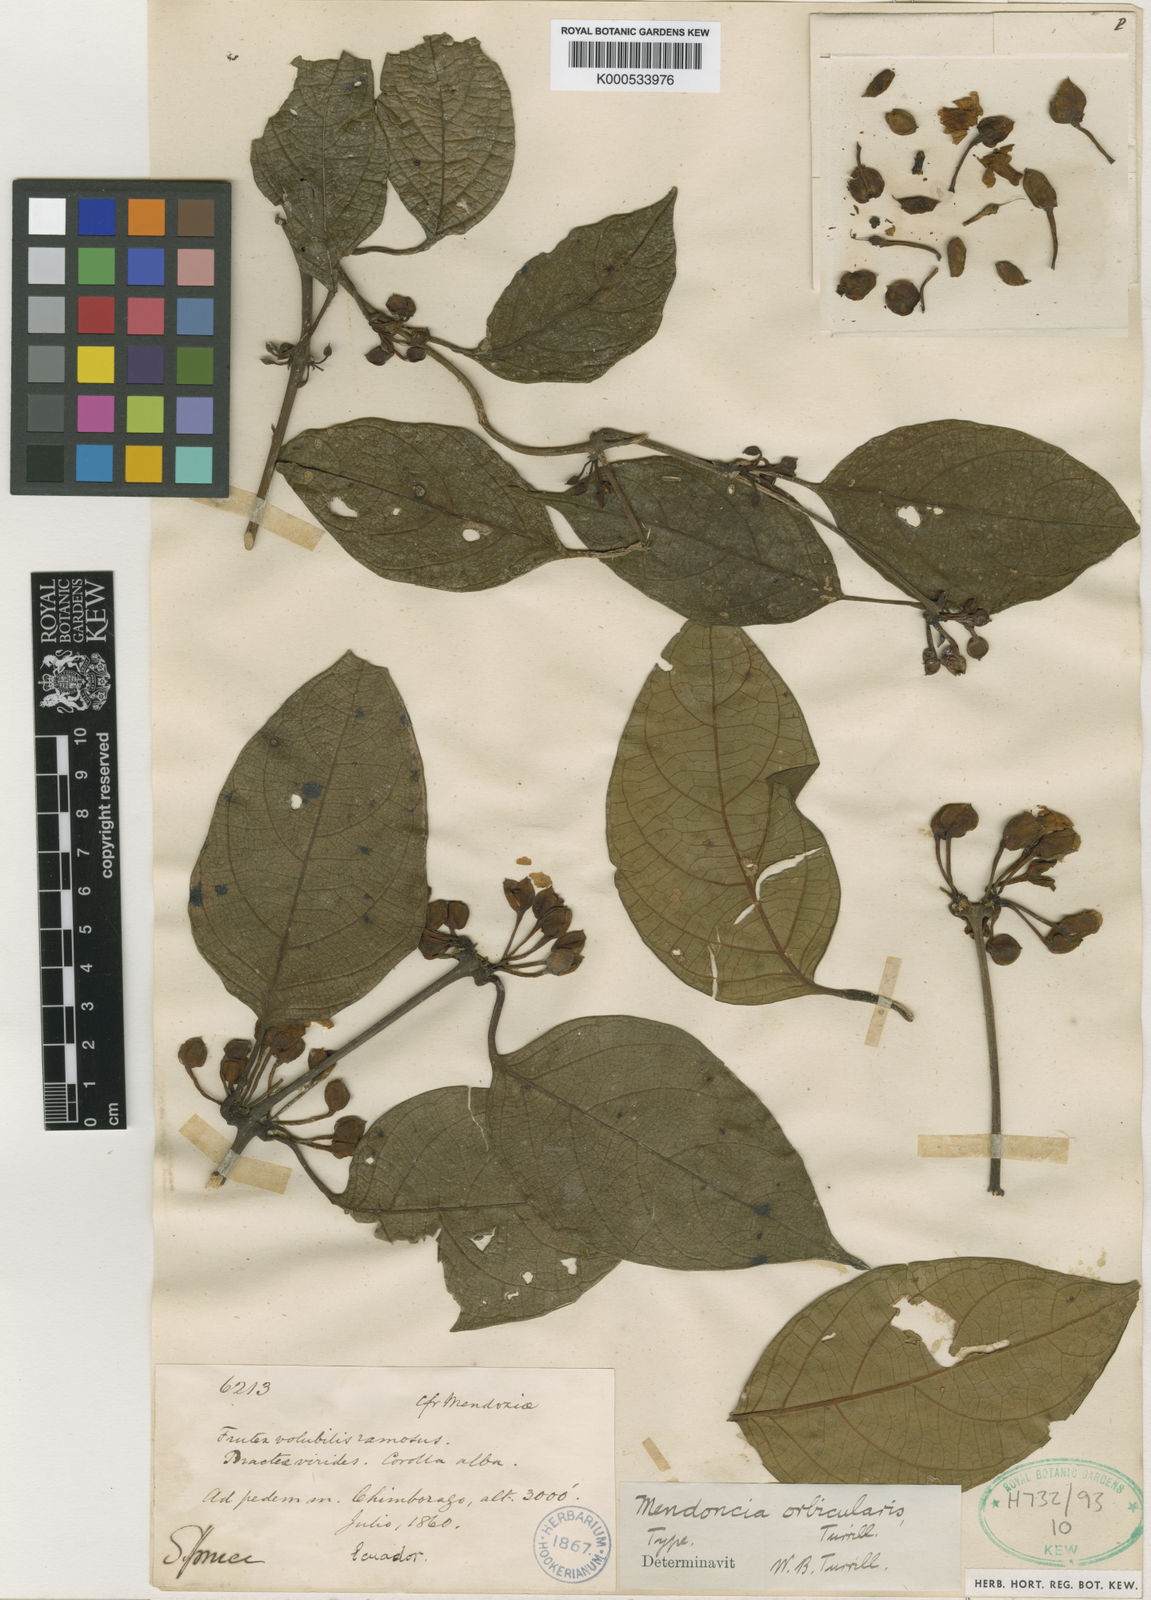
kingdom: Plantae
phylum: Tracheophyta
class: Magnoliopsida
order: Lamiales
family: Acanthaceae
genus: Mendoncia
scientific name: Mendoncia orbicularis
